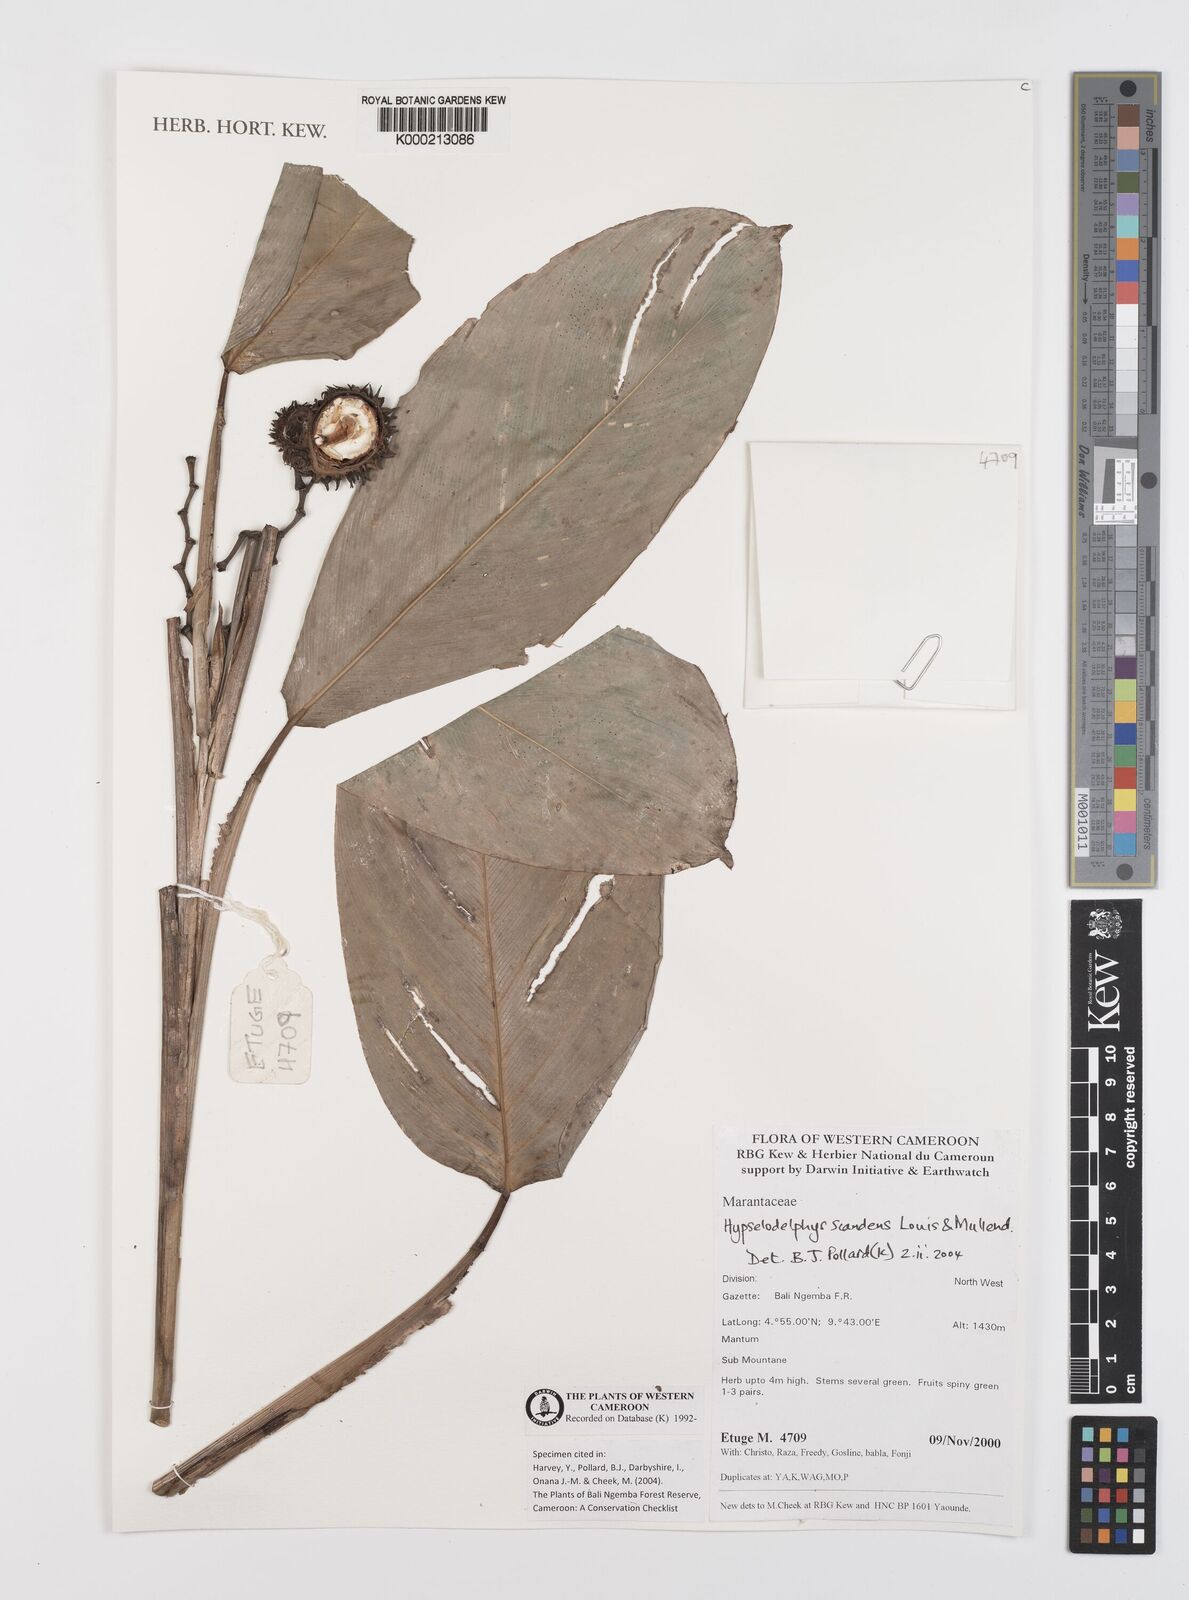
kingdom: Plantae
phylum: Tracheophyta
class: Liliopsida
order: Zingiberales
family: Marantaceae
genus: Hypselodelphys
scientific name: Hypselodelphys scandens
